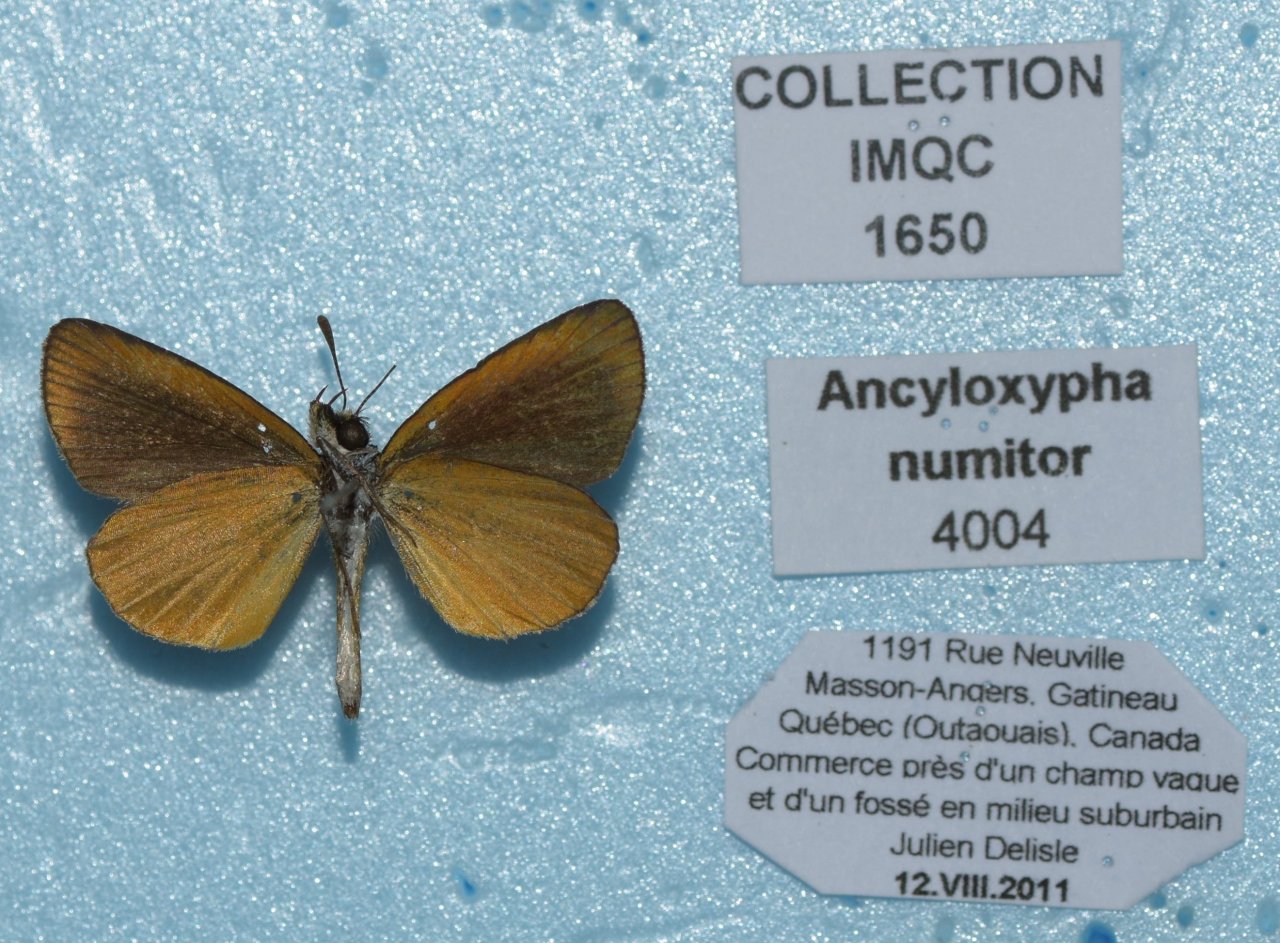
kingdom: Animalia
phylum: Arthropoda
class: Insecta
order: Lepidoptera
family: Hesperiidae
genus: Ancyloxypha
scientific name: Ancyloxypha numitor
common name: Least Skipper
